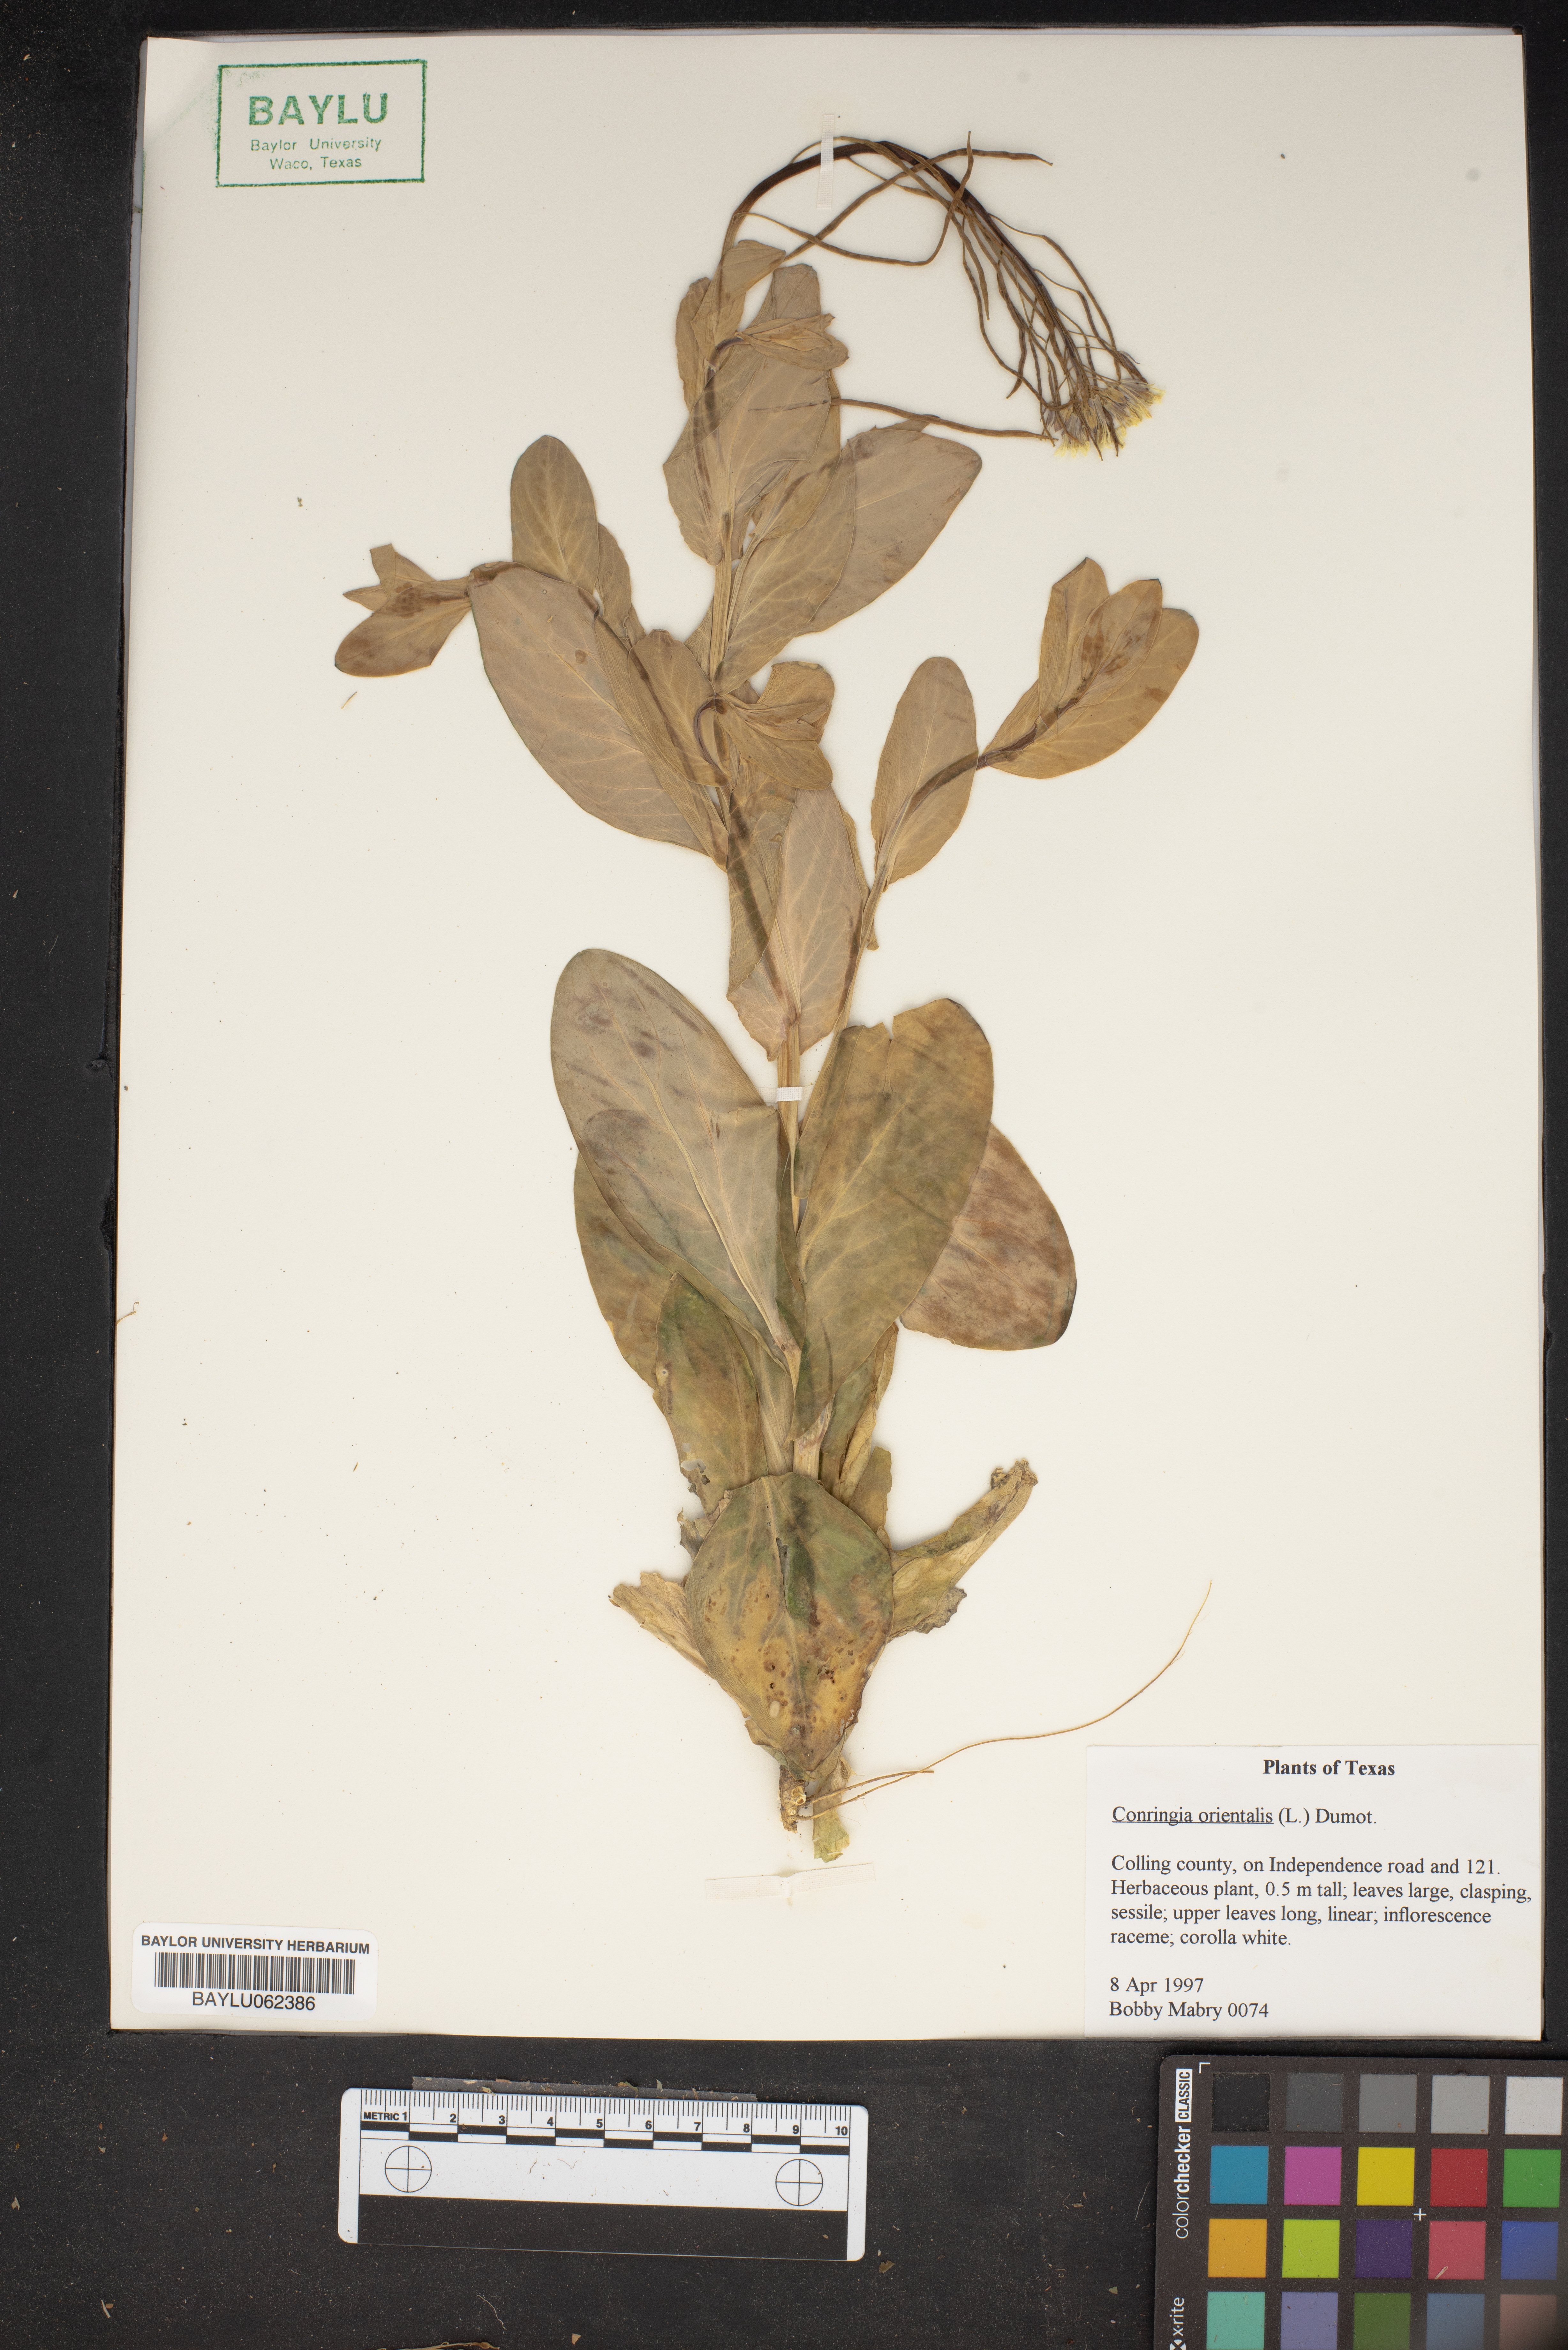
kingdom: Plantae
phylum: Tracheophyta
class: Magnoliopsida
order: Brassicales
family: Brassicaceae
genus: Conringia
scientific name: Conringia orientalis
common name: Hare's ear mustard
